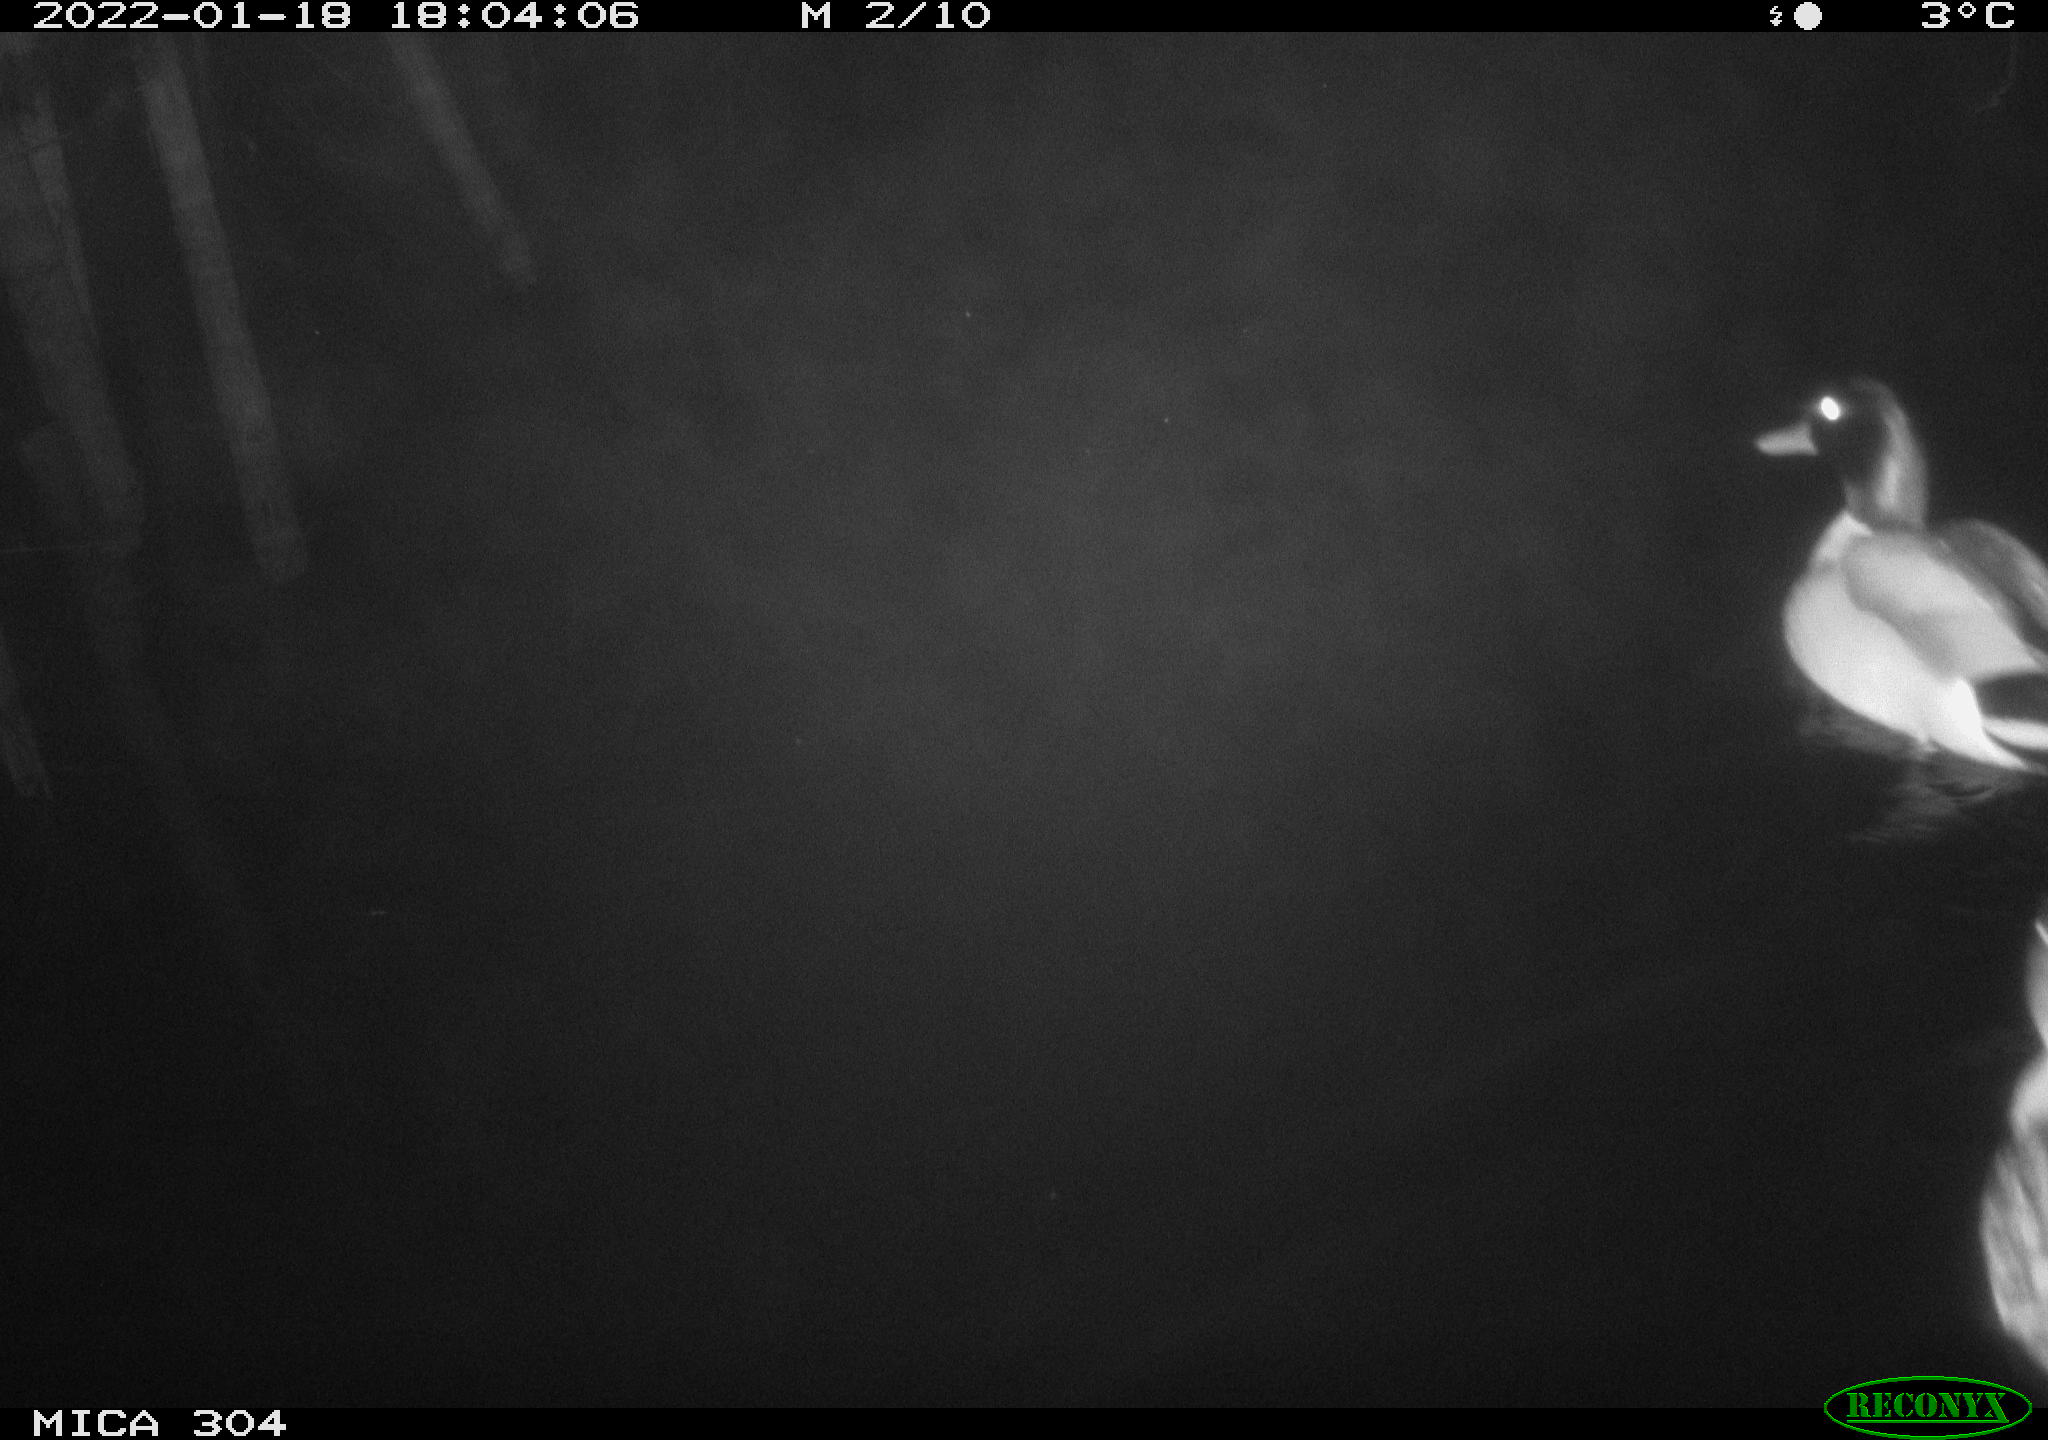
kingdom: Animalia
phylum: Chordata
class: Aves
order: Anseriformes
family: Anatidae
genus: Anas
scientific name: Anas
